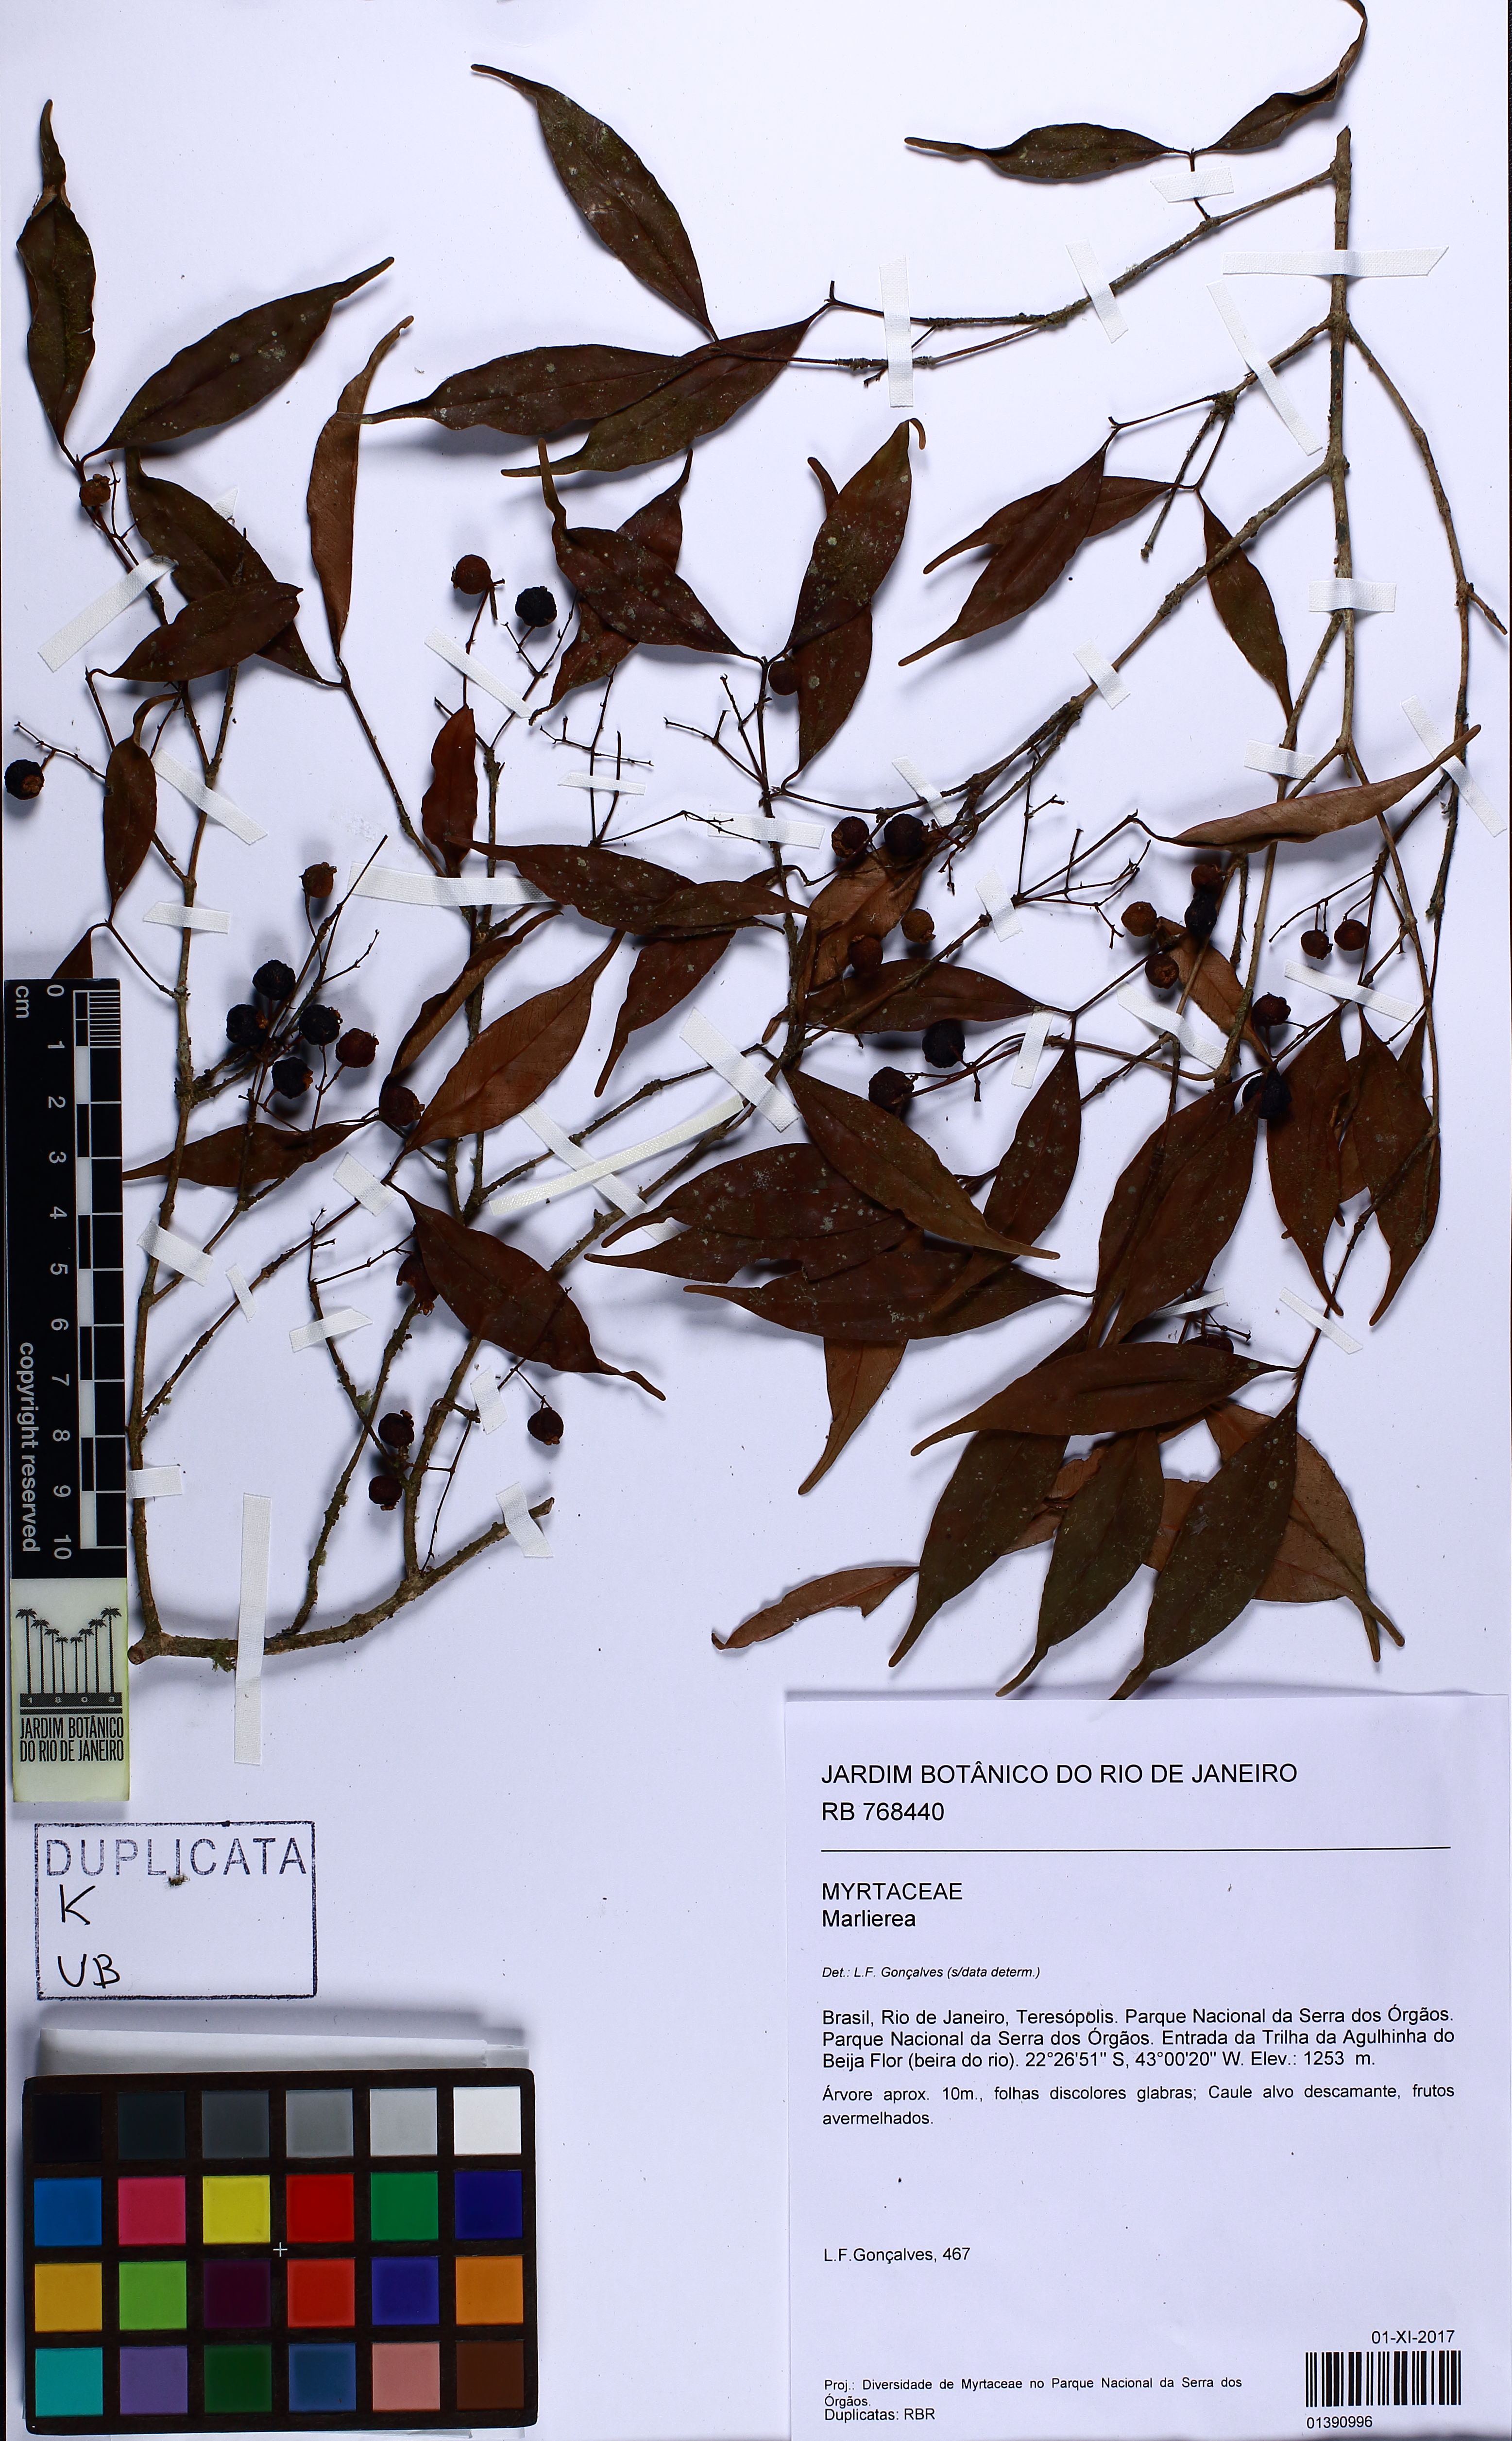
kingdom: Plantae
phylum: Tracheophyta
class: Magnoliopsida
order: Myrtales
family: Myrtaceae
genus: Myrcia
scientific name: Myrcia neosuaveolens
